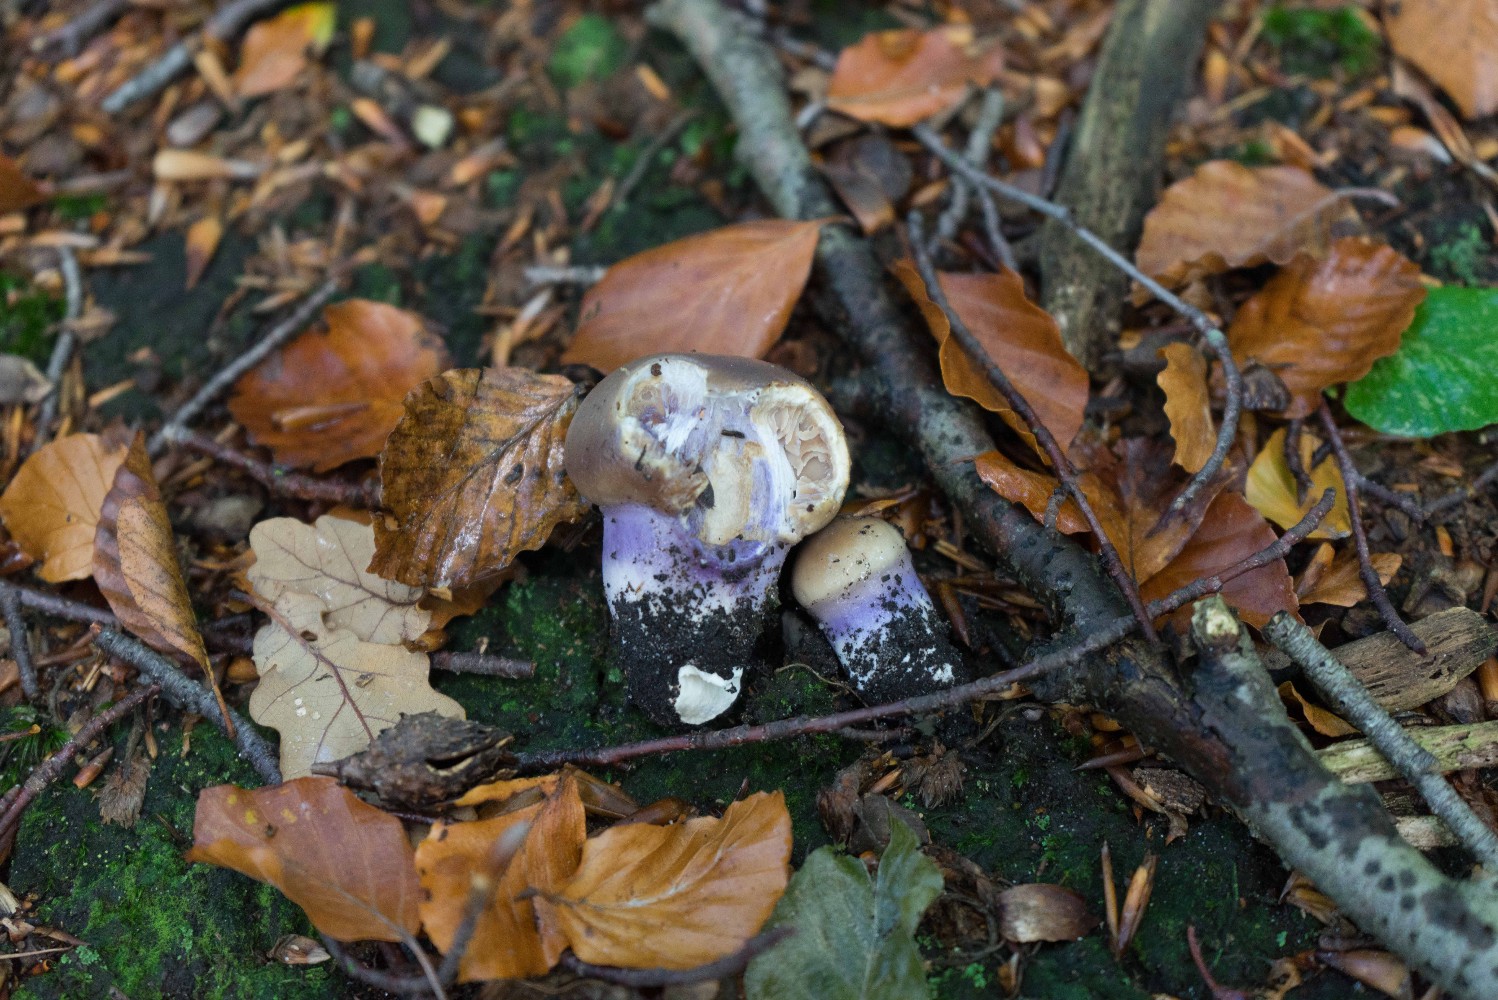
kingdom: Fungi
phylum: Basidiomycota
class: Agaricomycetes
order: Agaricales
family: Cortinariaceae
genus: Cortinarius
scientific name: Cortinarius elatior
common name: høj slørhat
